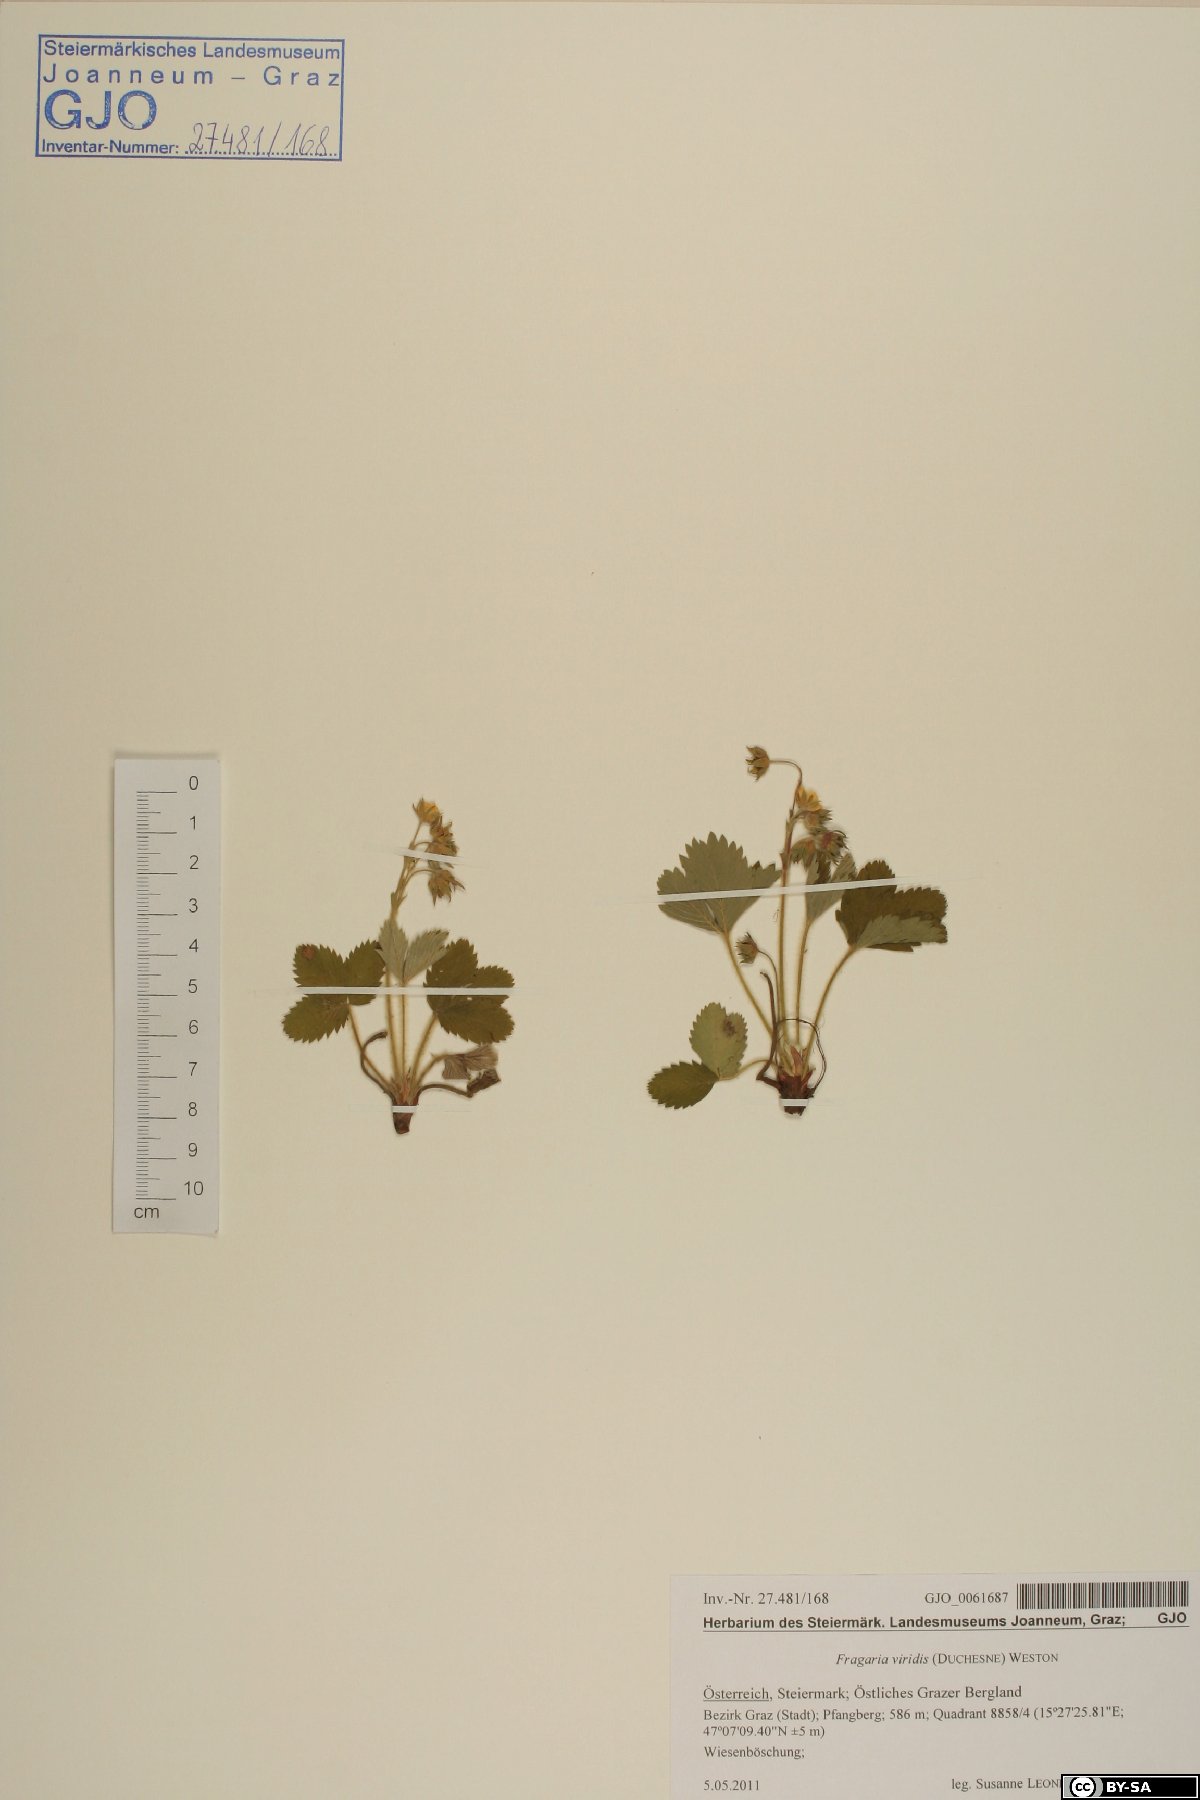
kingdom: Plantae
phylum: Tracheophyta
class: Magnoliopsida
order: Rosales
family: Rosaceae
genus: Fragaria
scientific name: Fragaria viridis
